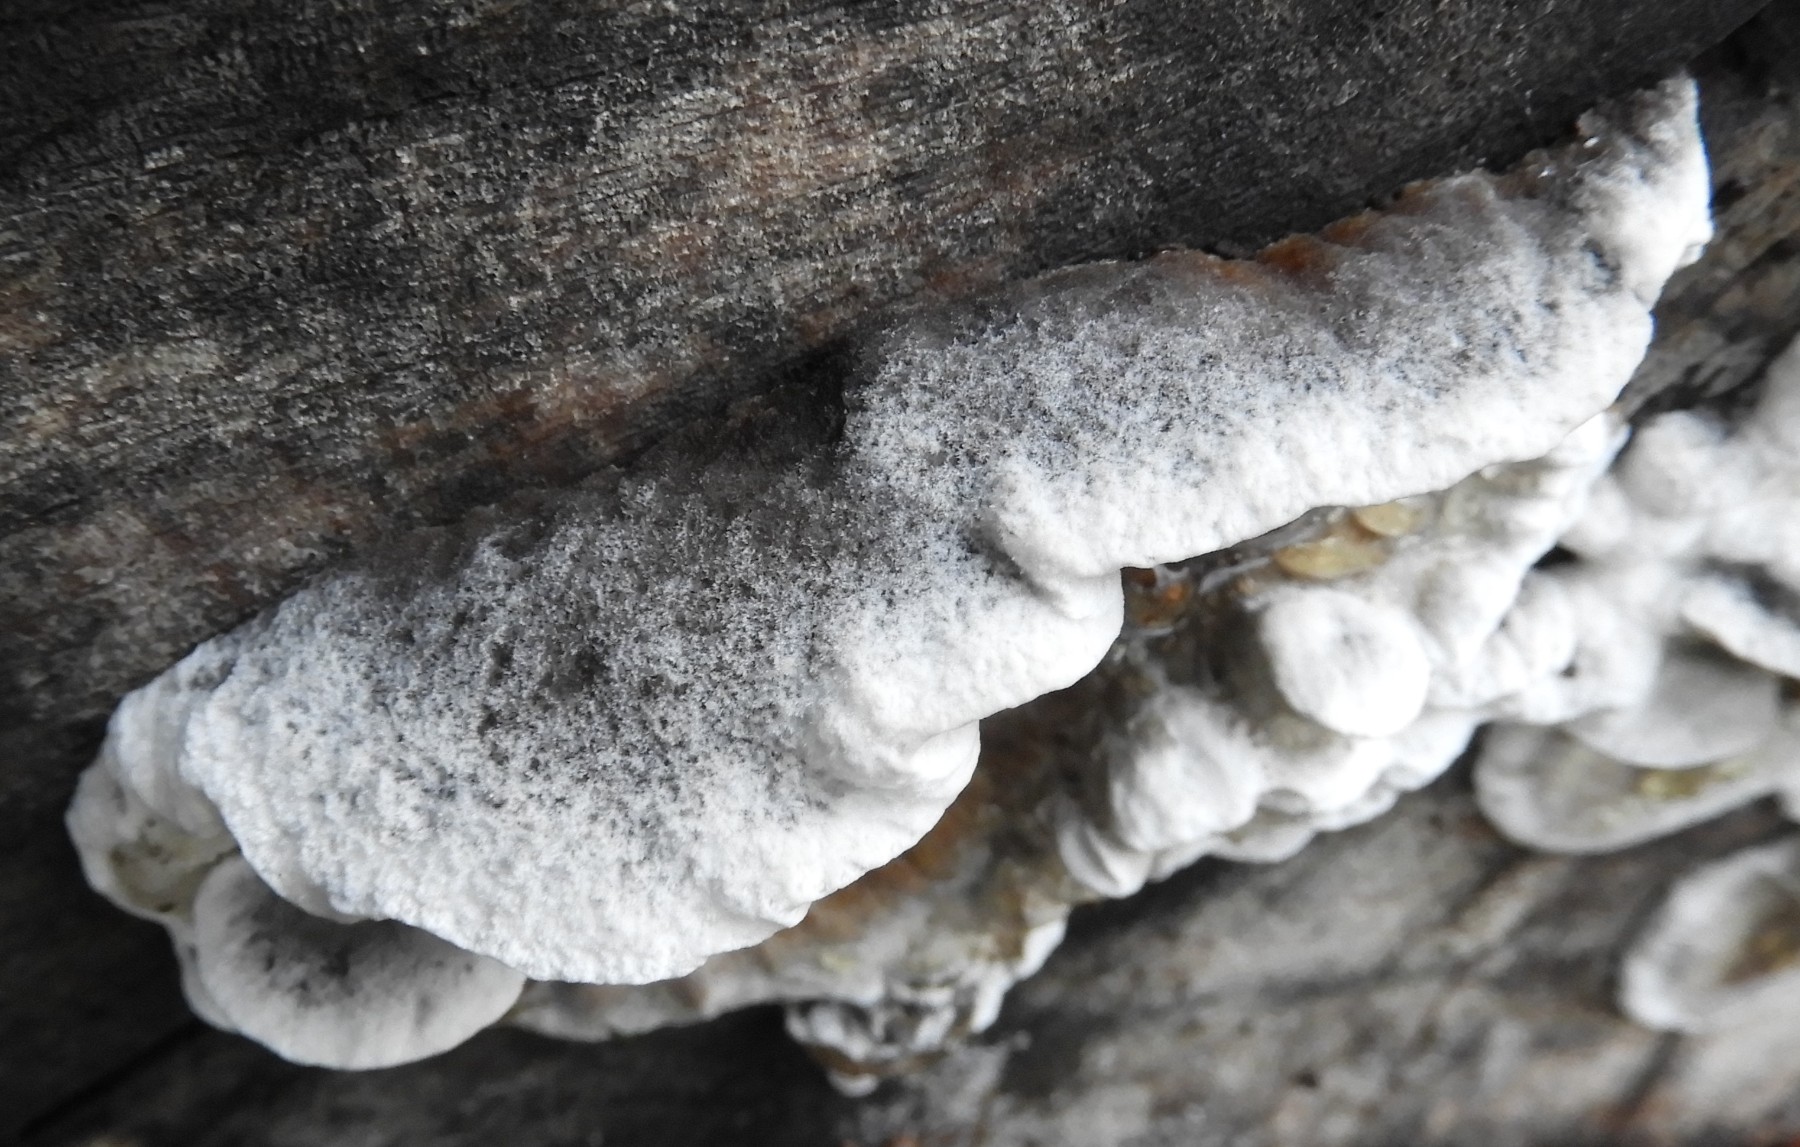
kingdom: Fungi
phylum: Basidiomycota
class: Agaricomycetes
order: Polyporales
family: Phanerochaetaceae
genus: Bjerkandera
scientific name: Bjerkandera adusta
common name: sveden sodporesvamp
